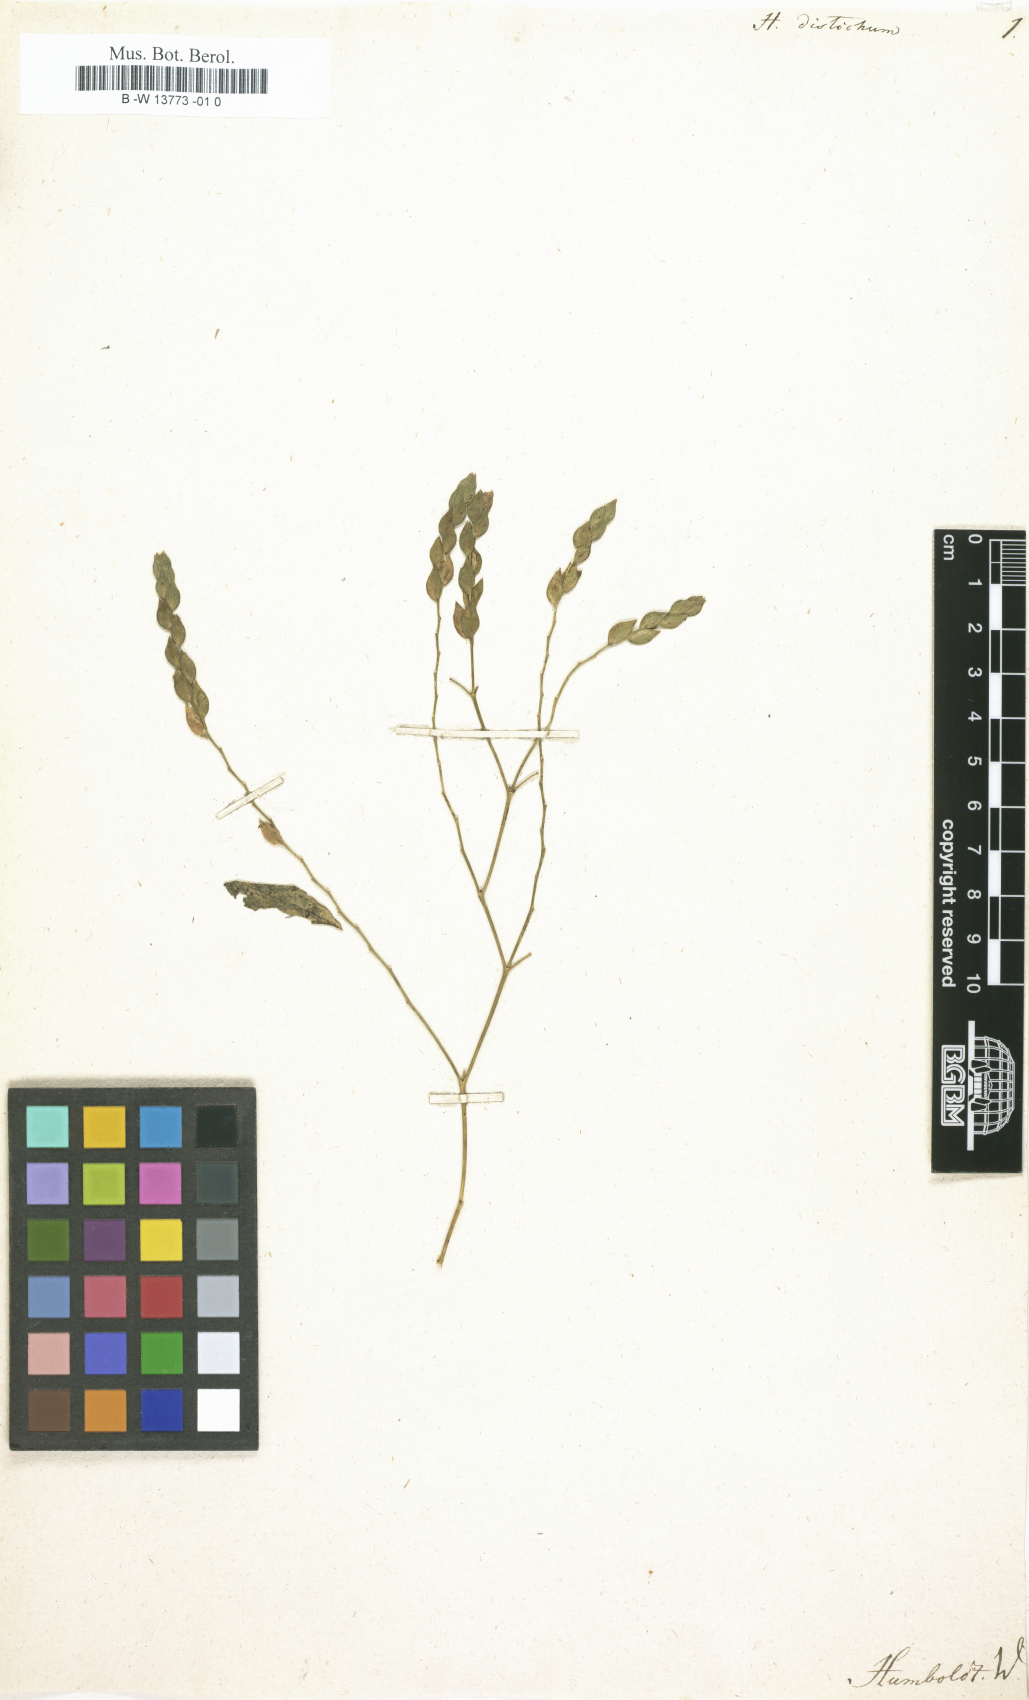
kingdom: Plantae
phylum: Tracheophyta
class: Magnoliopsida
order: Fabales
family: Fabaceae
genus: Hedysarum
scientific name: Hedysarum
